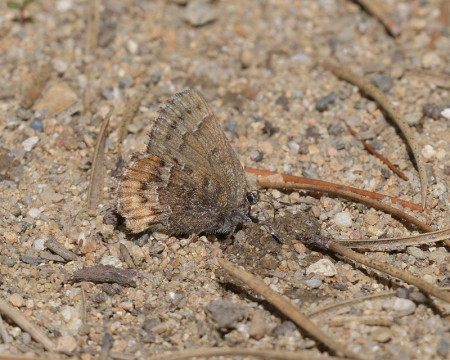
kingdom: Animalia
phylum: Arthropoda
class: Insecta
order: Lepidoptera
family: Lycaenidae
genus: Incisalia
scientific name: Incisalia niphon
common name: Eastern Pine Elfin
